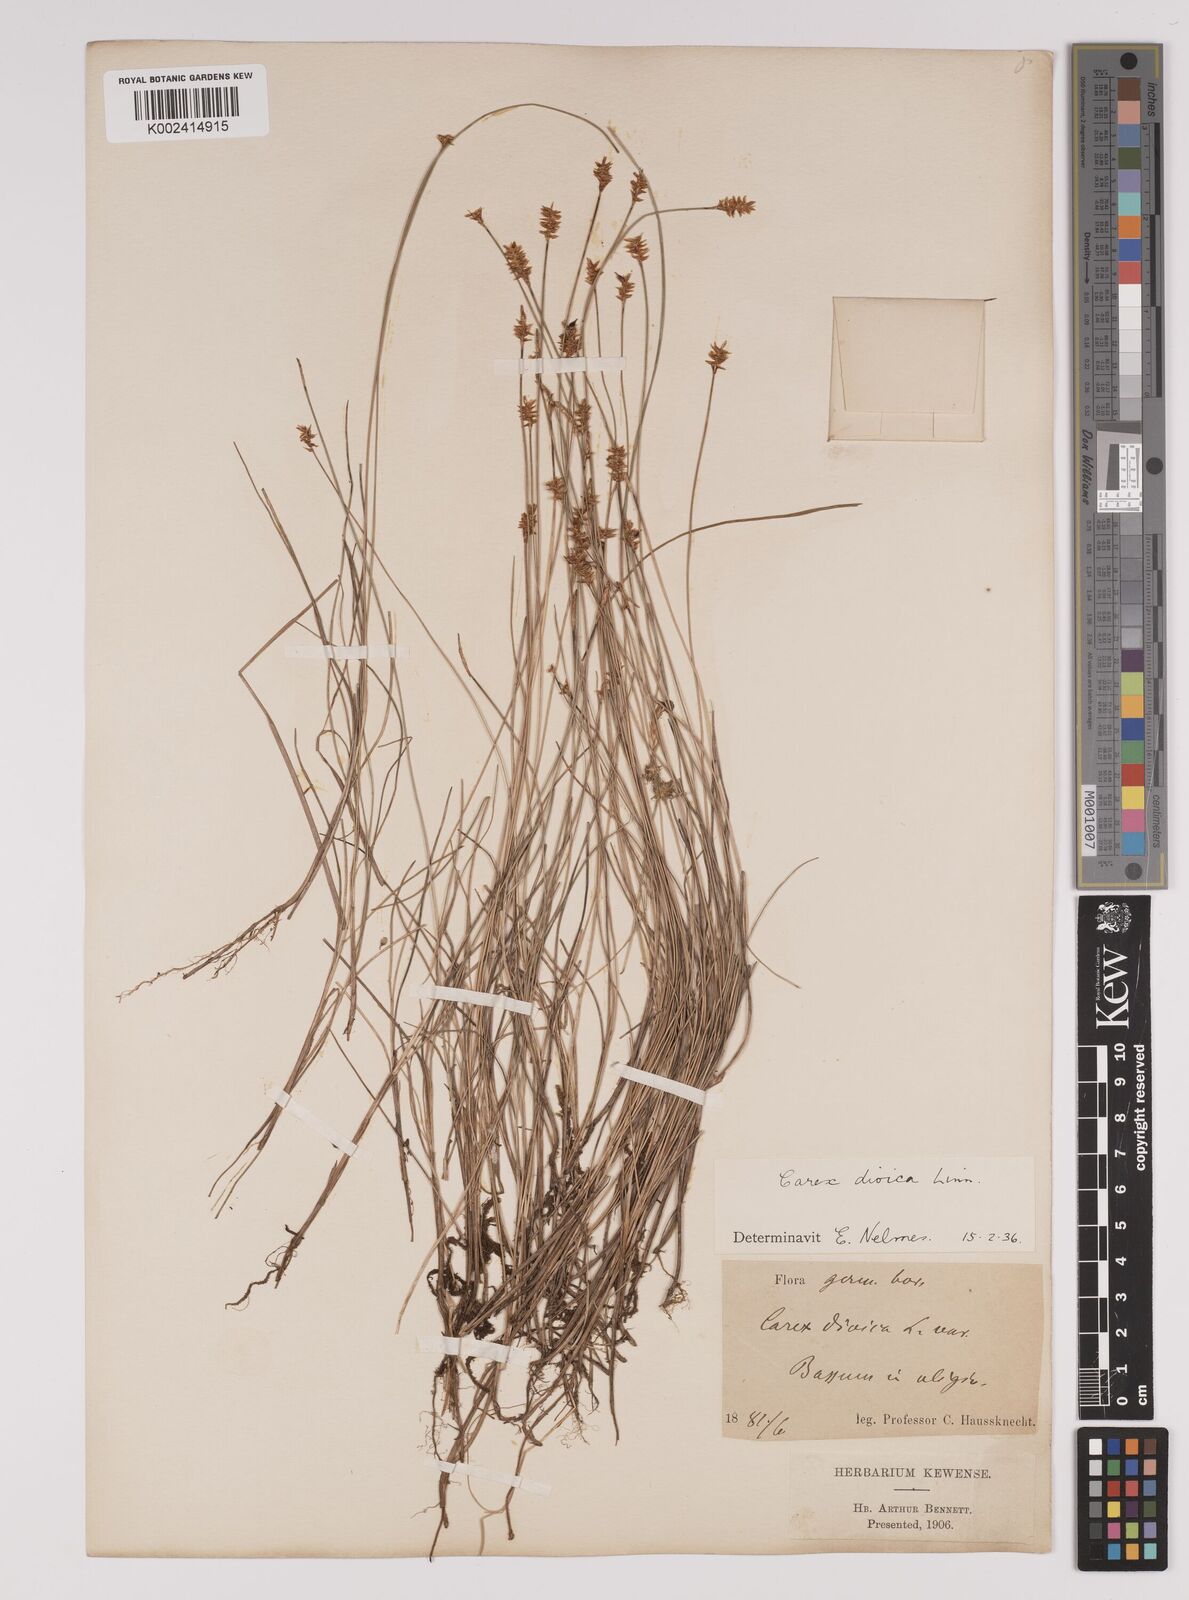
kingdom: Plantae
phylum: Tracheophyta
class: Liliopsida
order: Poales
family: Cyperaceae
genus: Carex
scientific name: Carex dioica
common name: Dioecious sedge
